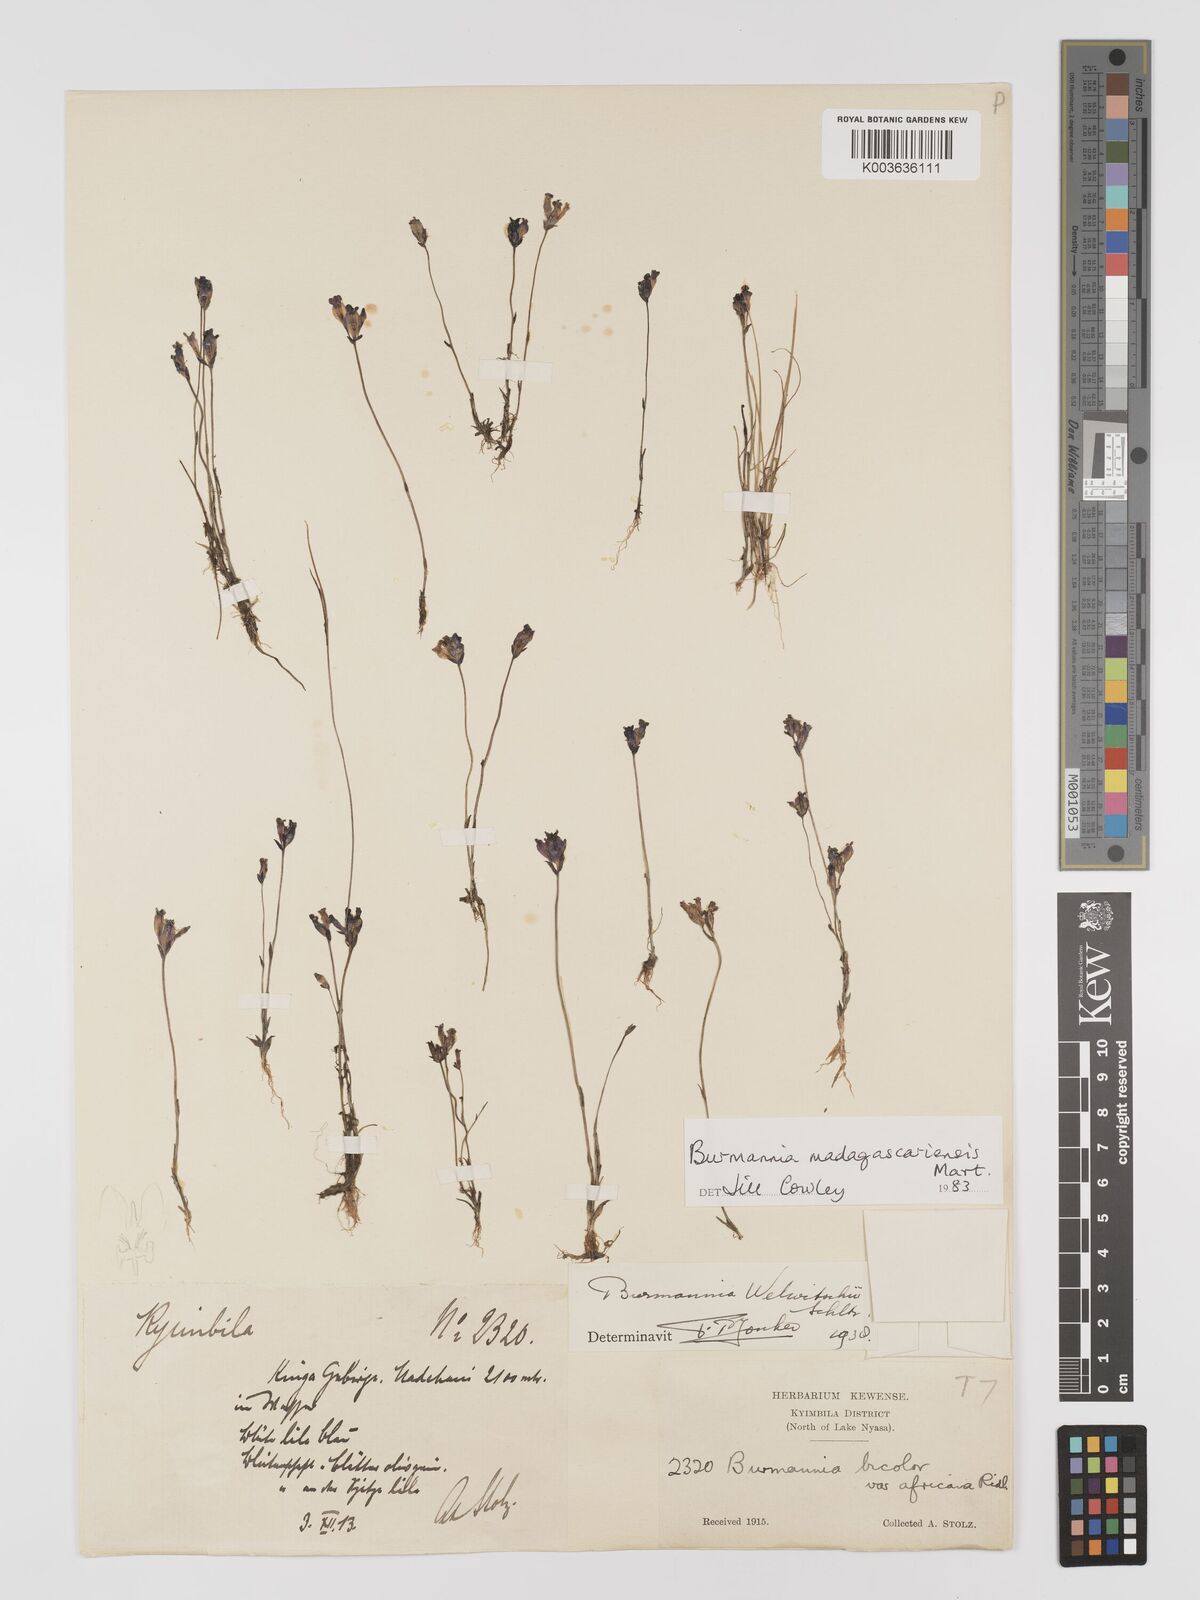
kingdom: Plantae
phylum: Tracheophyta
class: Liliopsida
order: Dioscoreales
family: Burmanniaceae
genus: Burmannia
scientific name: Burmannia madagascariensis
